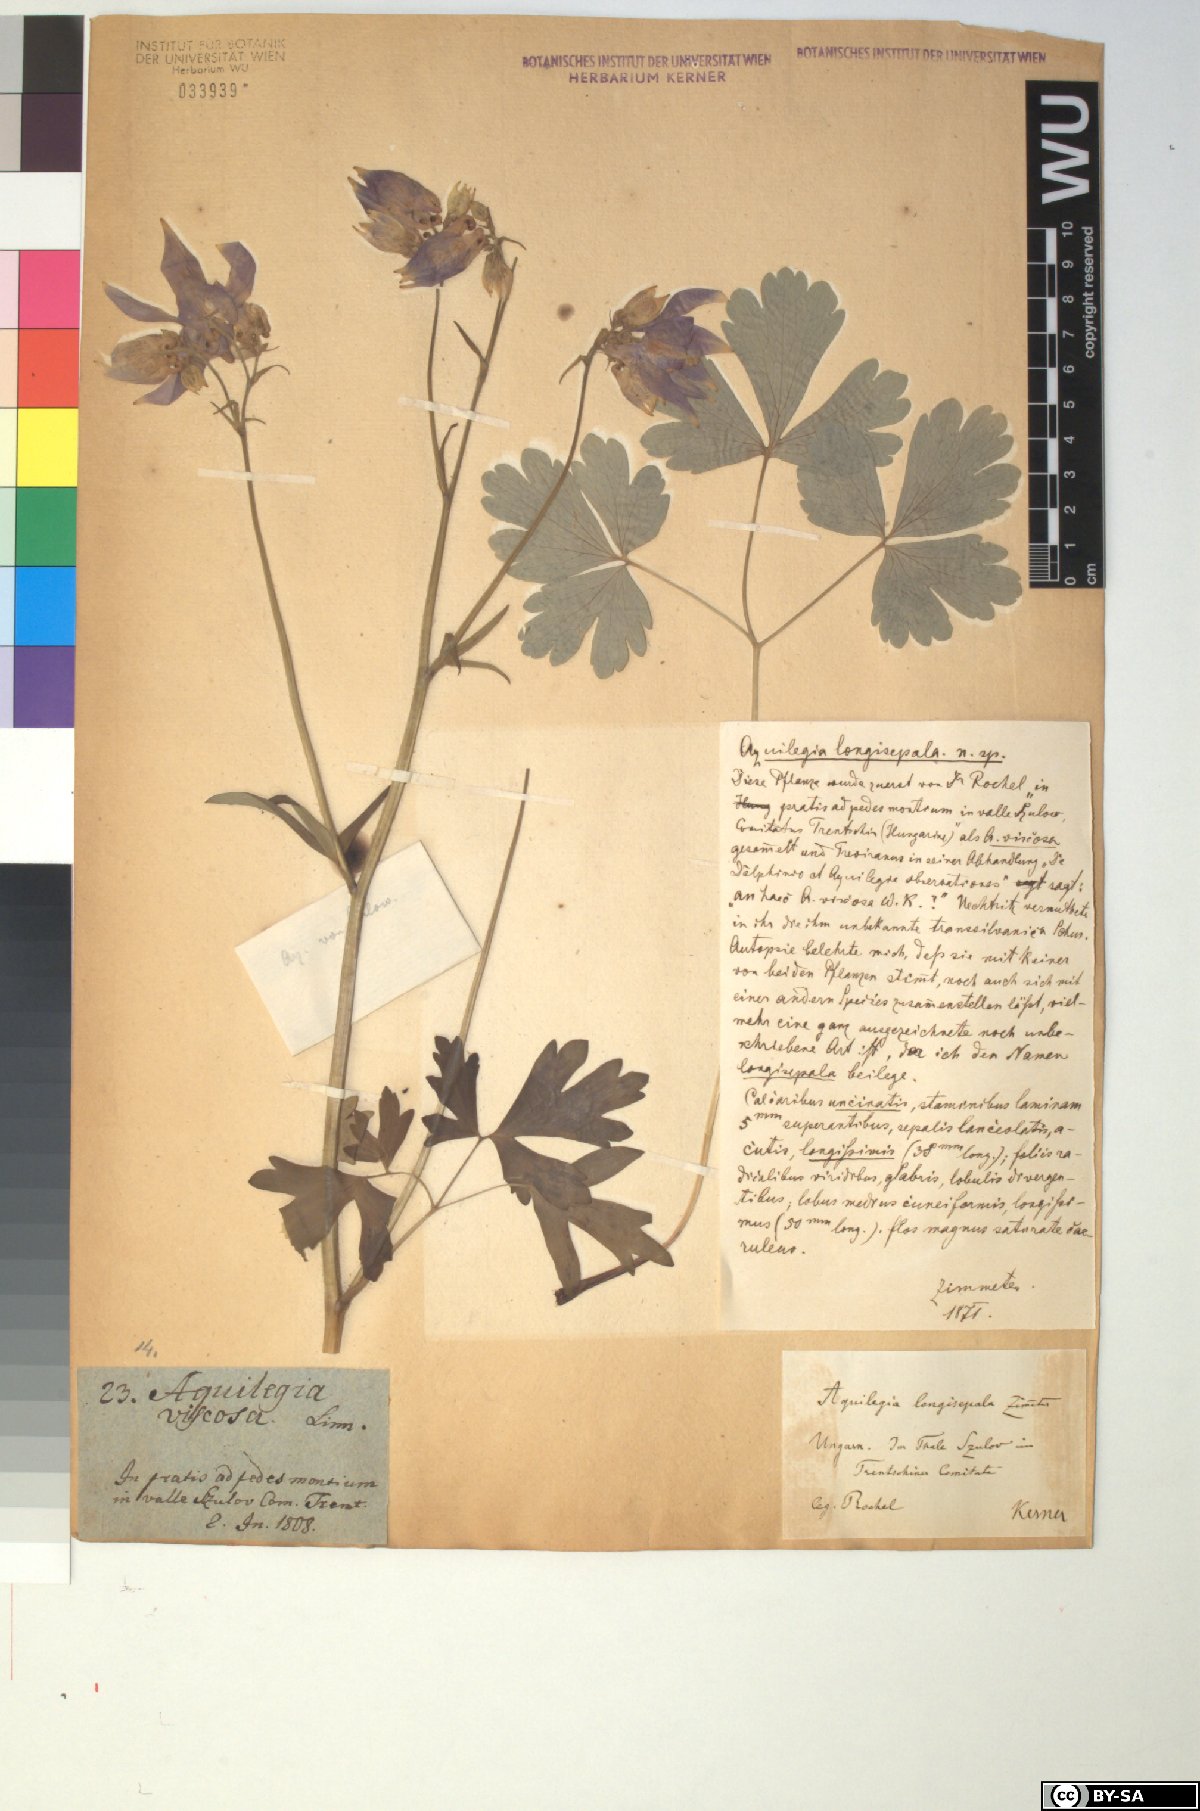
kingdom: Plantae
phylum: Tracheophyta
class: Magnoliopsida
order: Ranunculales
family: Ranunculaceae
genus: Aquilegia
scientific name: Aquilegia nigricans
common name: Bulgarian columbine
